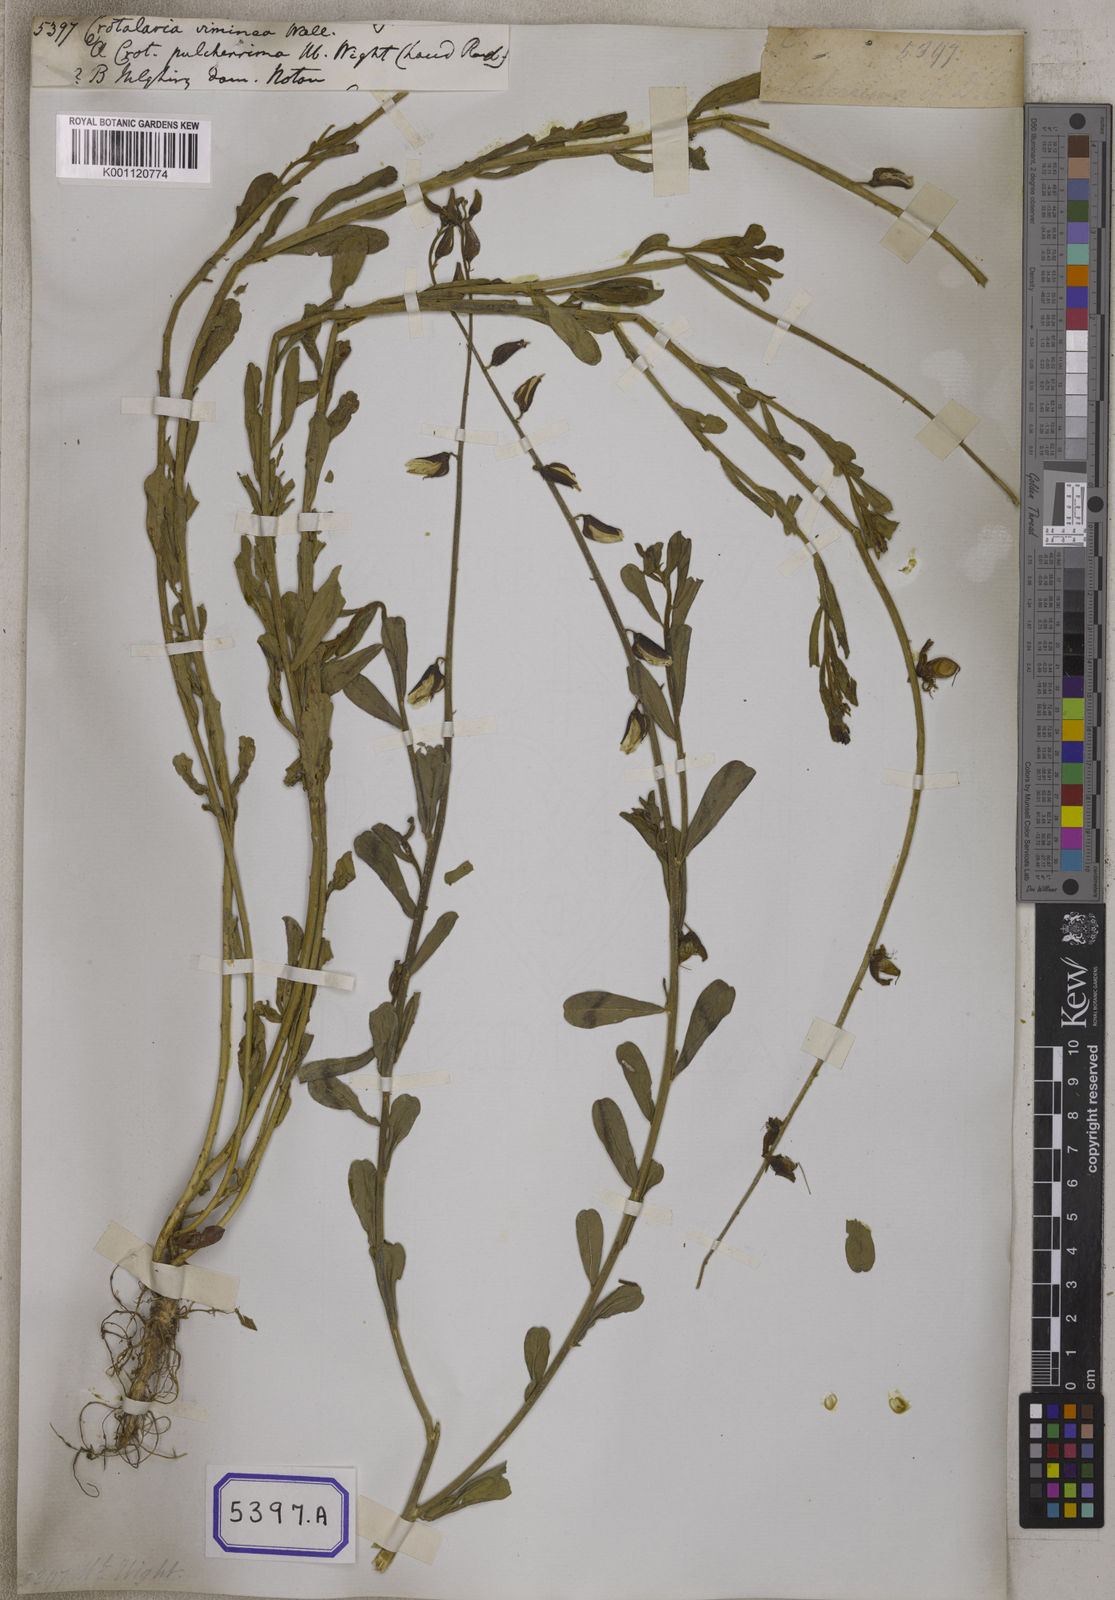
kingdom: Plantae
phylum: Tracheophyta
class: Magnoliopsida
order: Fabales
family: Fabaceae
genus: Crotalaria
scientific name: Crotalaria
